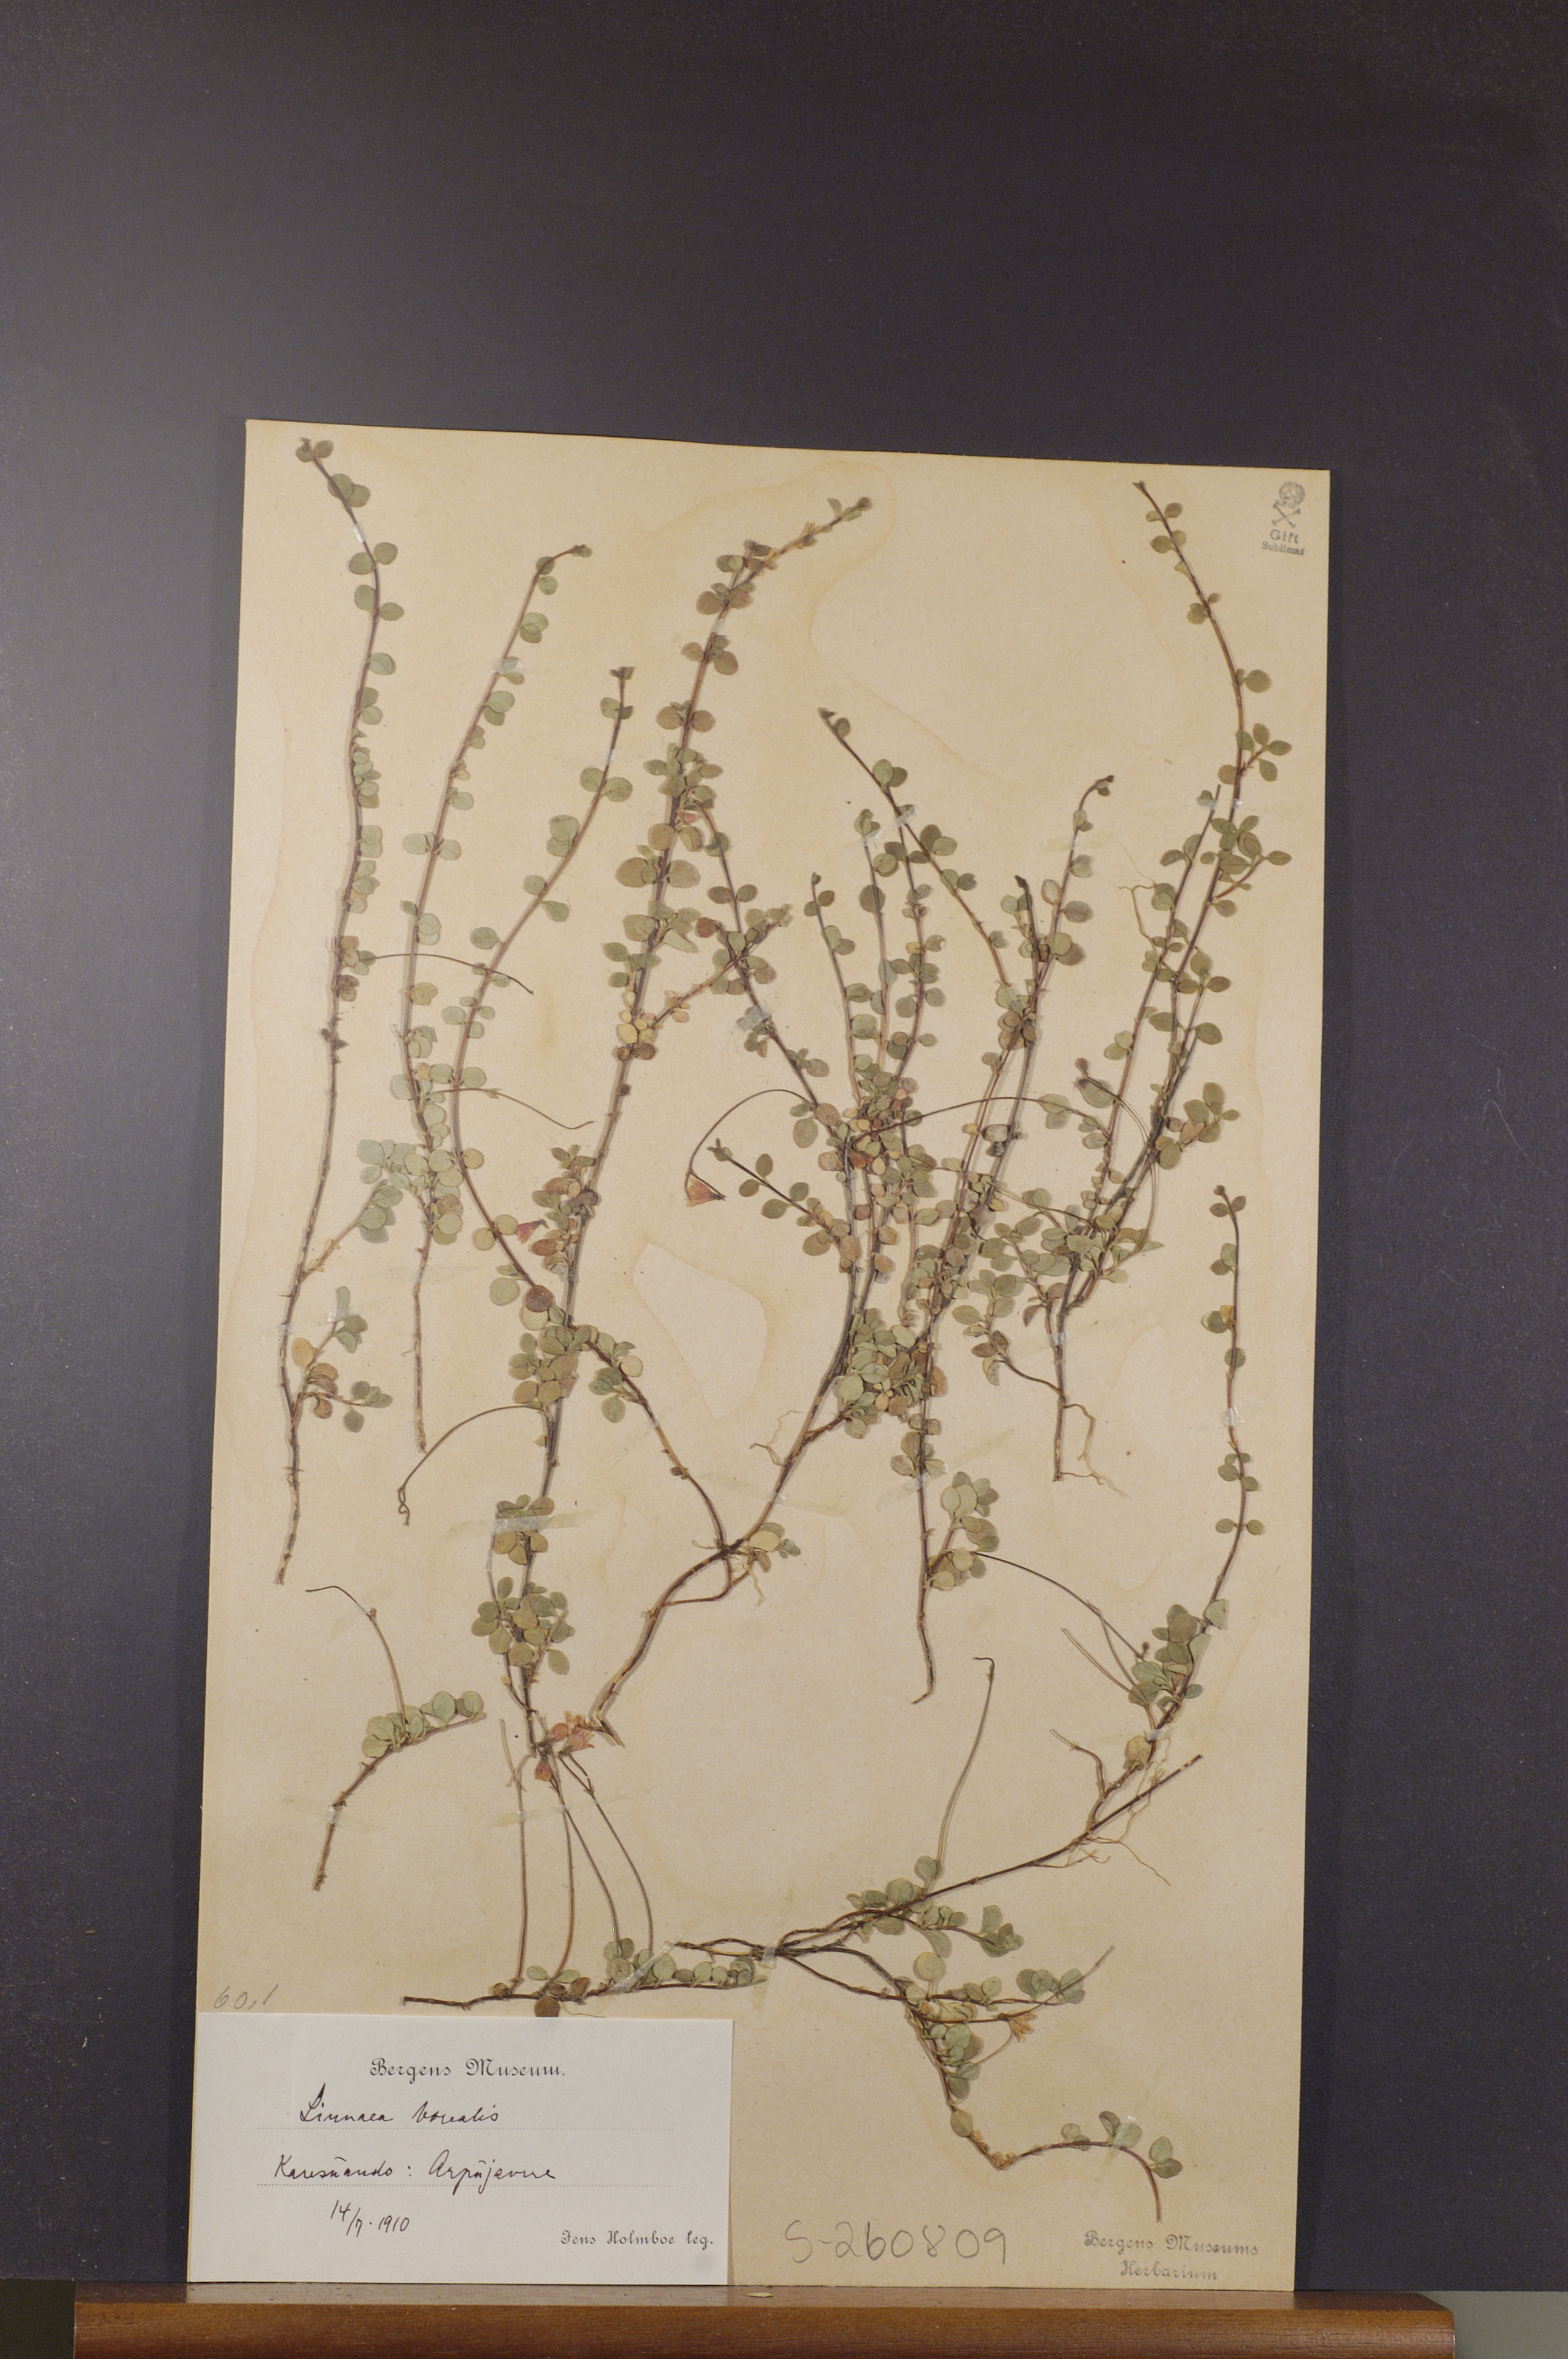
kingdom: Plantae
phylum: Tracheophyta
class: Magnoliopsida
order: Dipsacales
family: Caprifoliaceae
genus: Linnaea
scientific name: Linnaea borealis
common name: Twinflower
